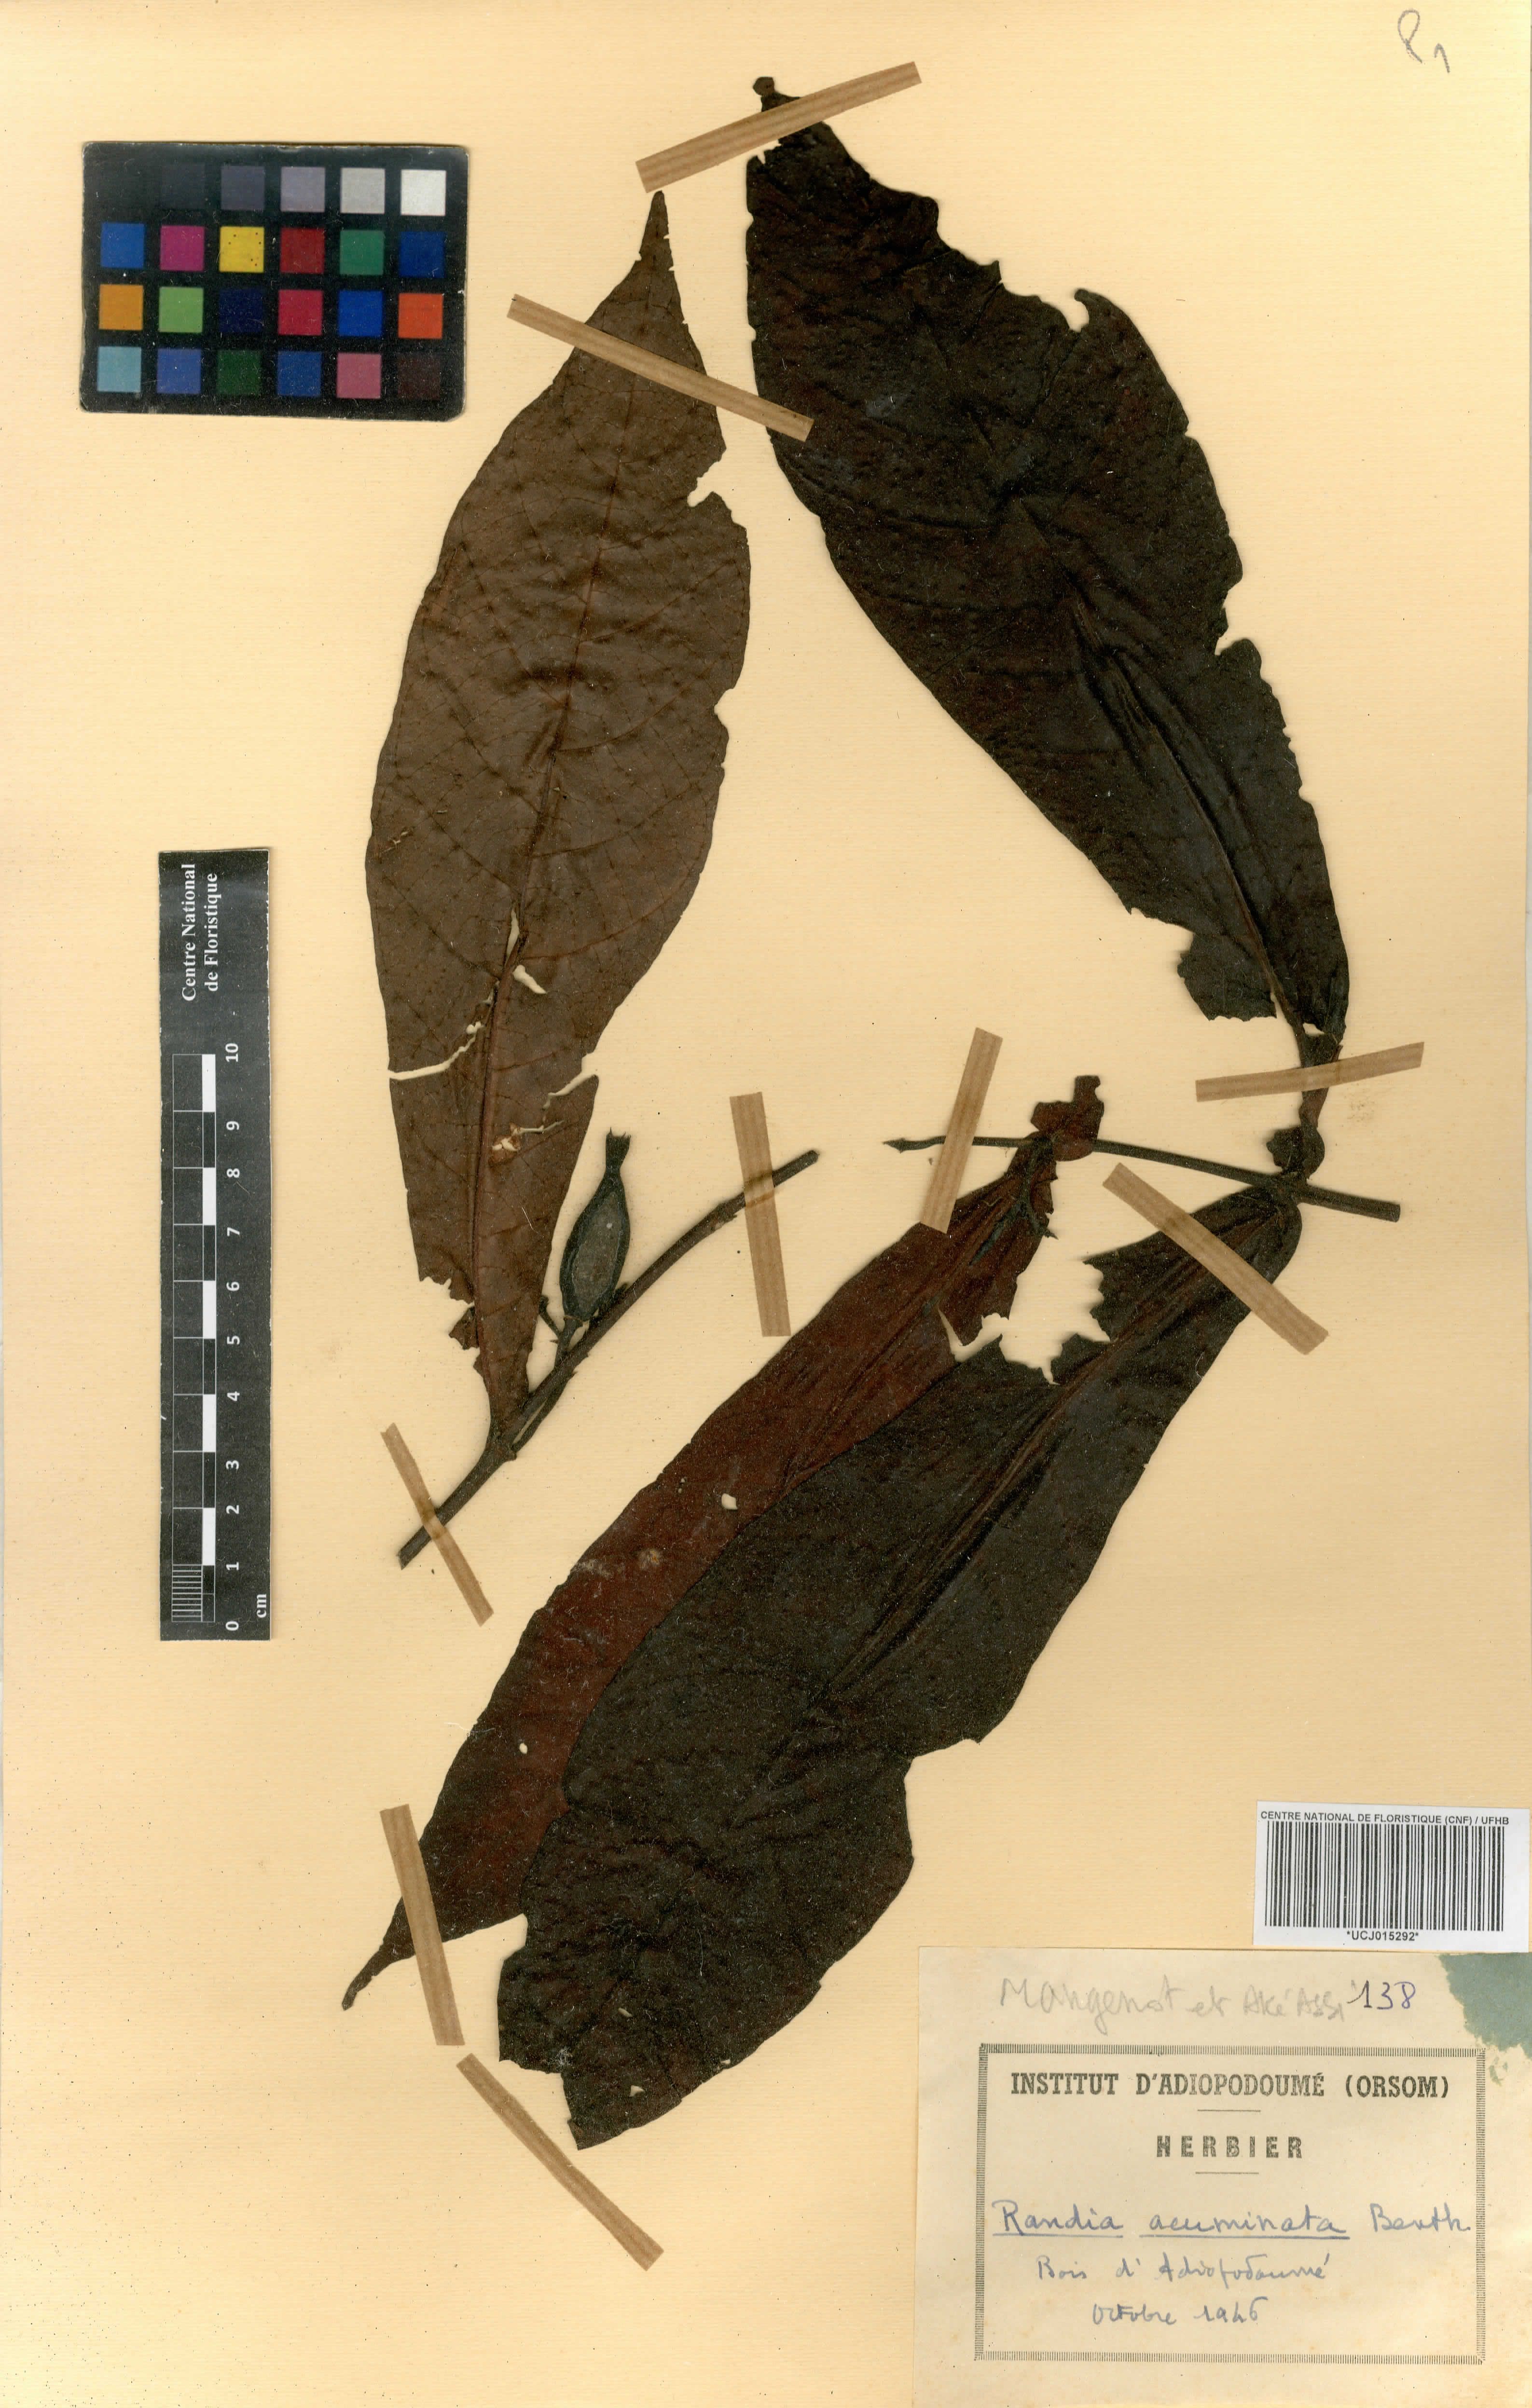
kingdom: Plantae
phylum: Tracheophyta
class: Magnoliopsida
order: Gentianales
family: Rubiaceae
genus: Massularia
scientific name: Massularia acuminata
